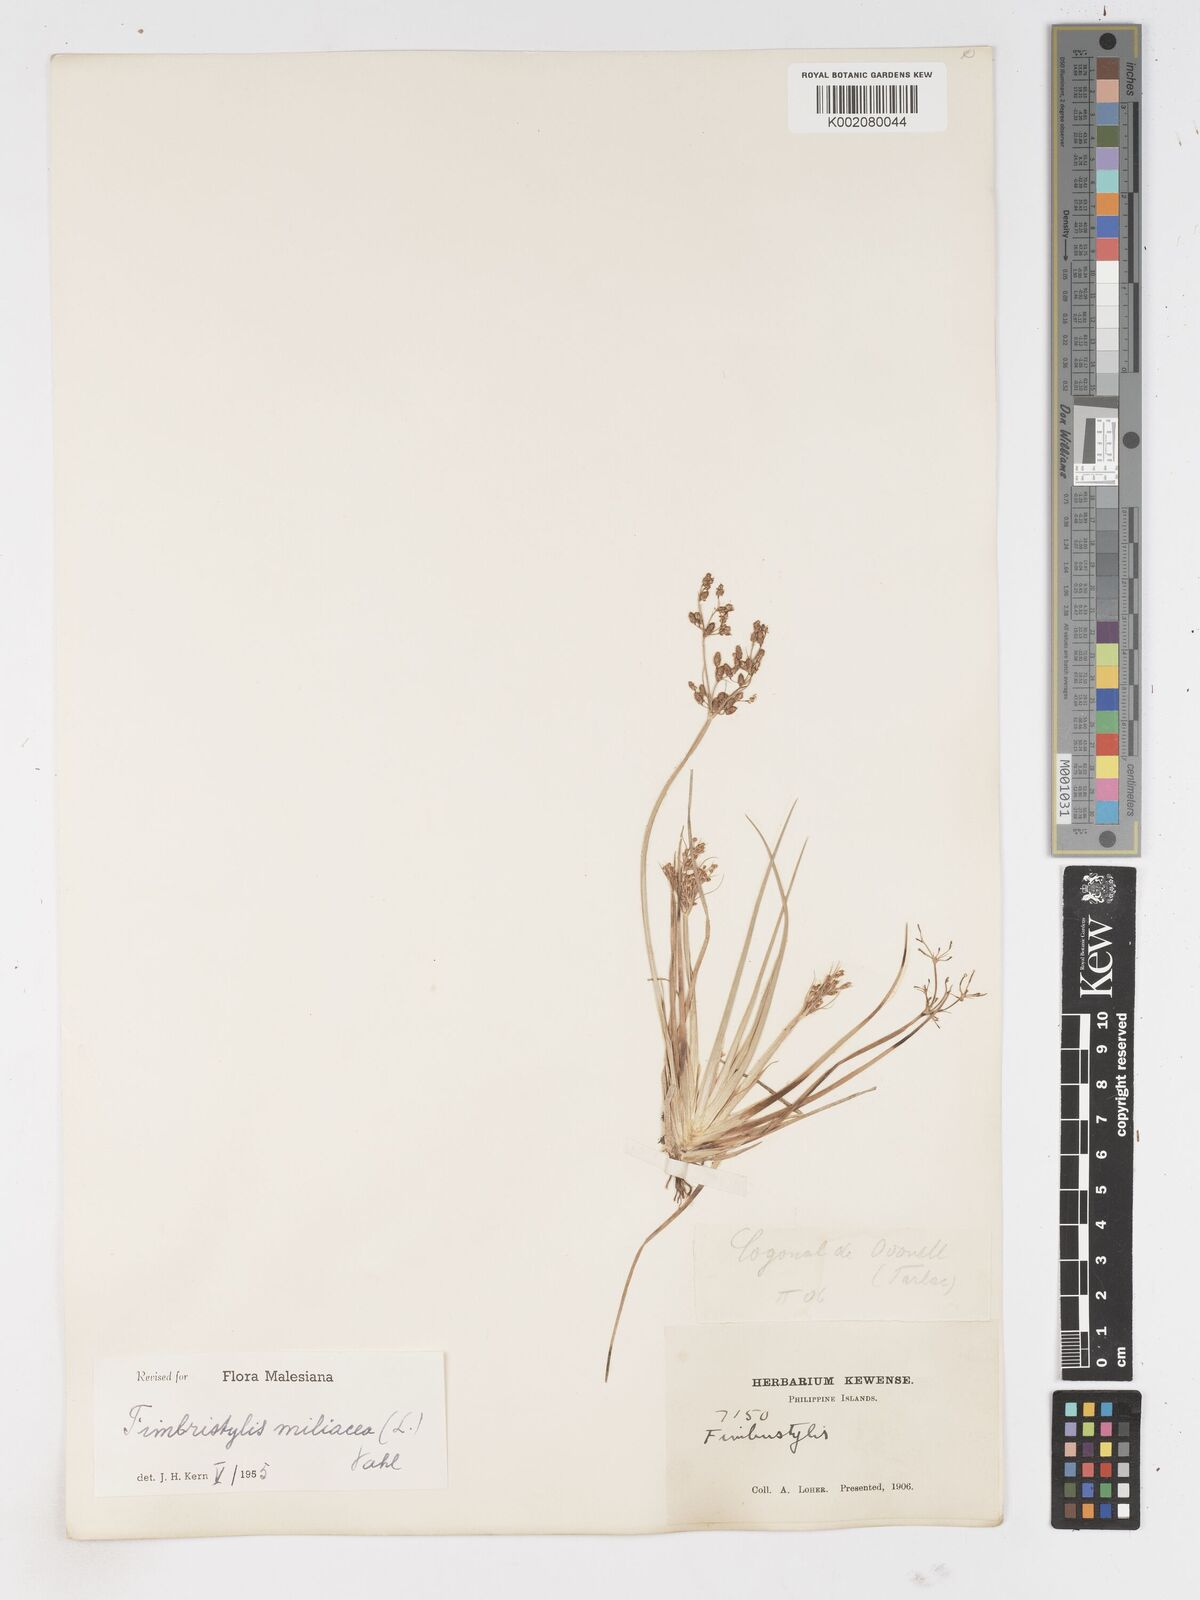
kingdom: Plantae
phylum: Tracheophyta
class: Liliopsida
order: Poales
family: Cyperaceae
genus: Fimbristylis
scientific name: Fimbristylis littoralis
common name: Fimbry
